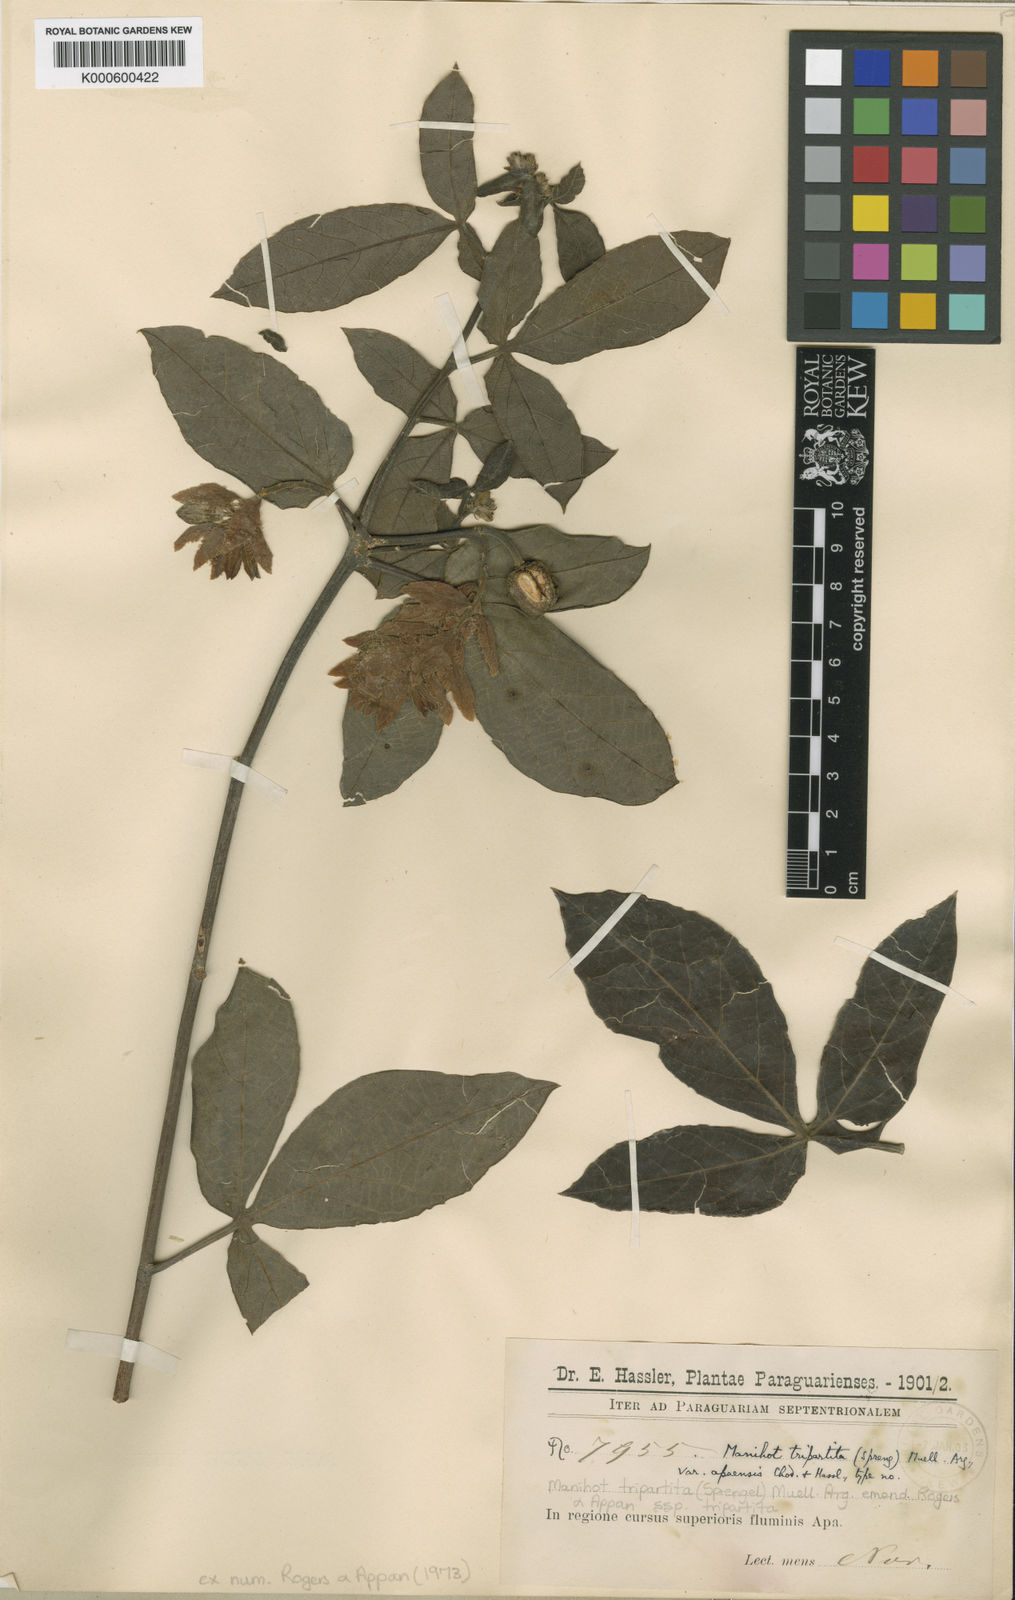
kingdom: Plantae
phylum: Tracheophyta
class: Magnoliopsida
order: Malpighiales
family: Euphorbiaceae
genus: Manihot
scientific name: Manihot tripartita
